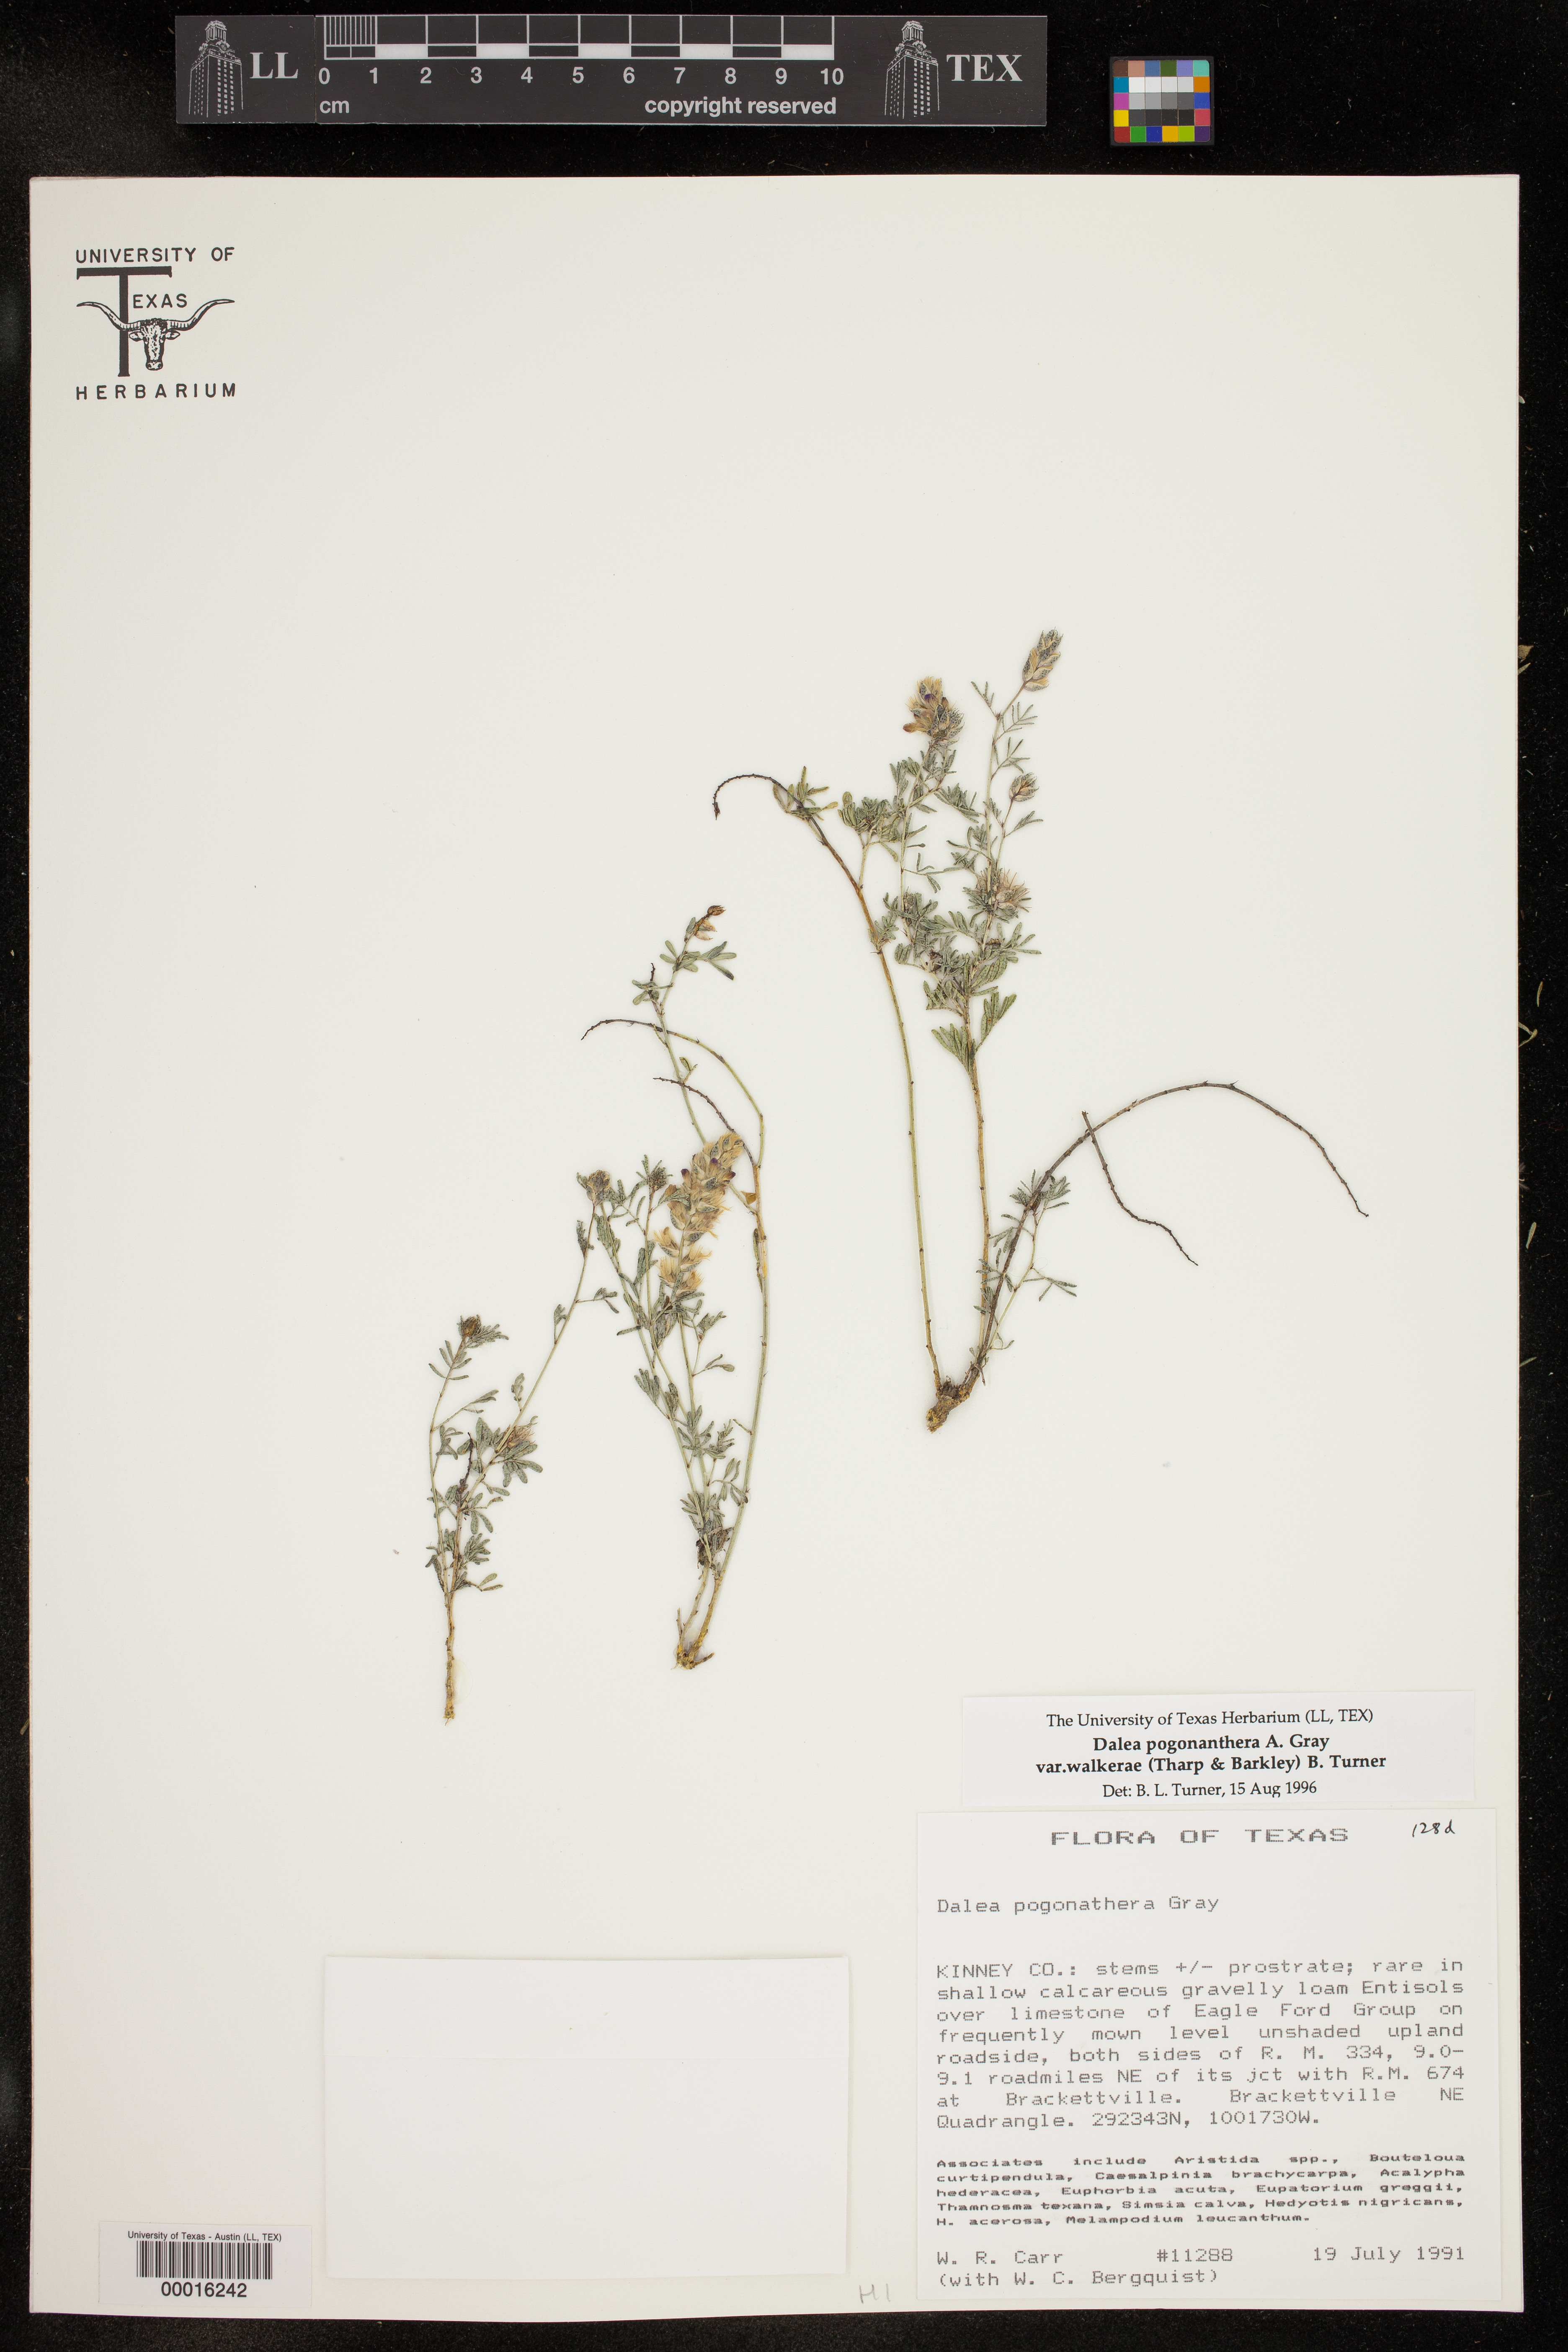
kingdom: Plantae
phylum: Tracheophyta
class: Magnoliopsida
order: Fabales
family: Fabaceae
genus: Dalea
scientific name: Dalea pogonathera
